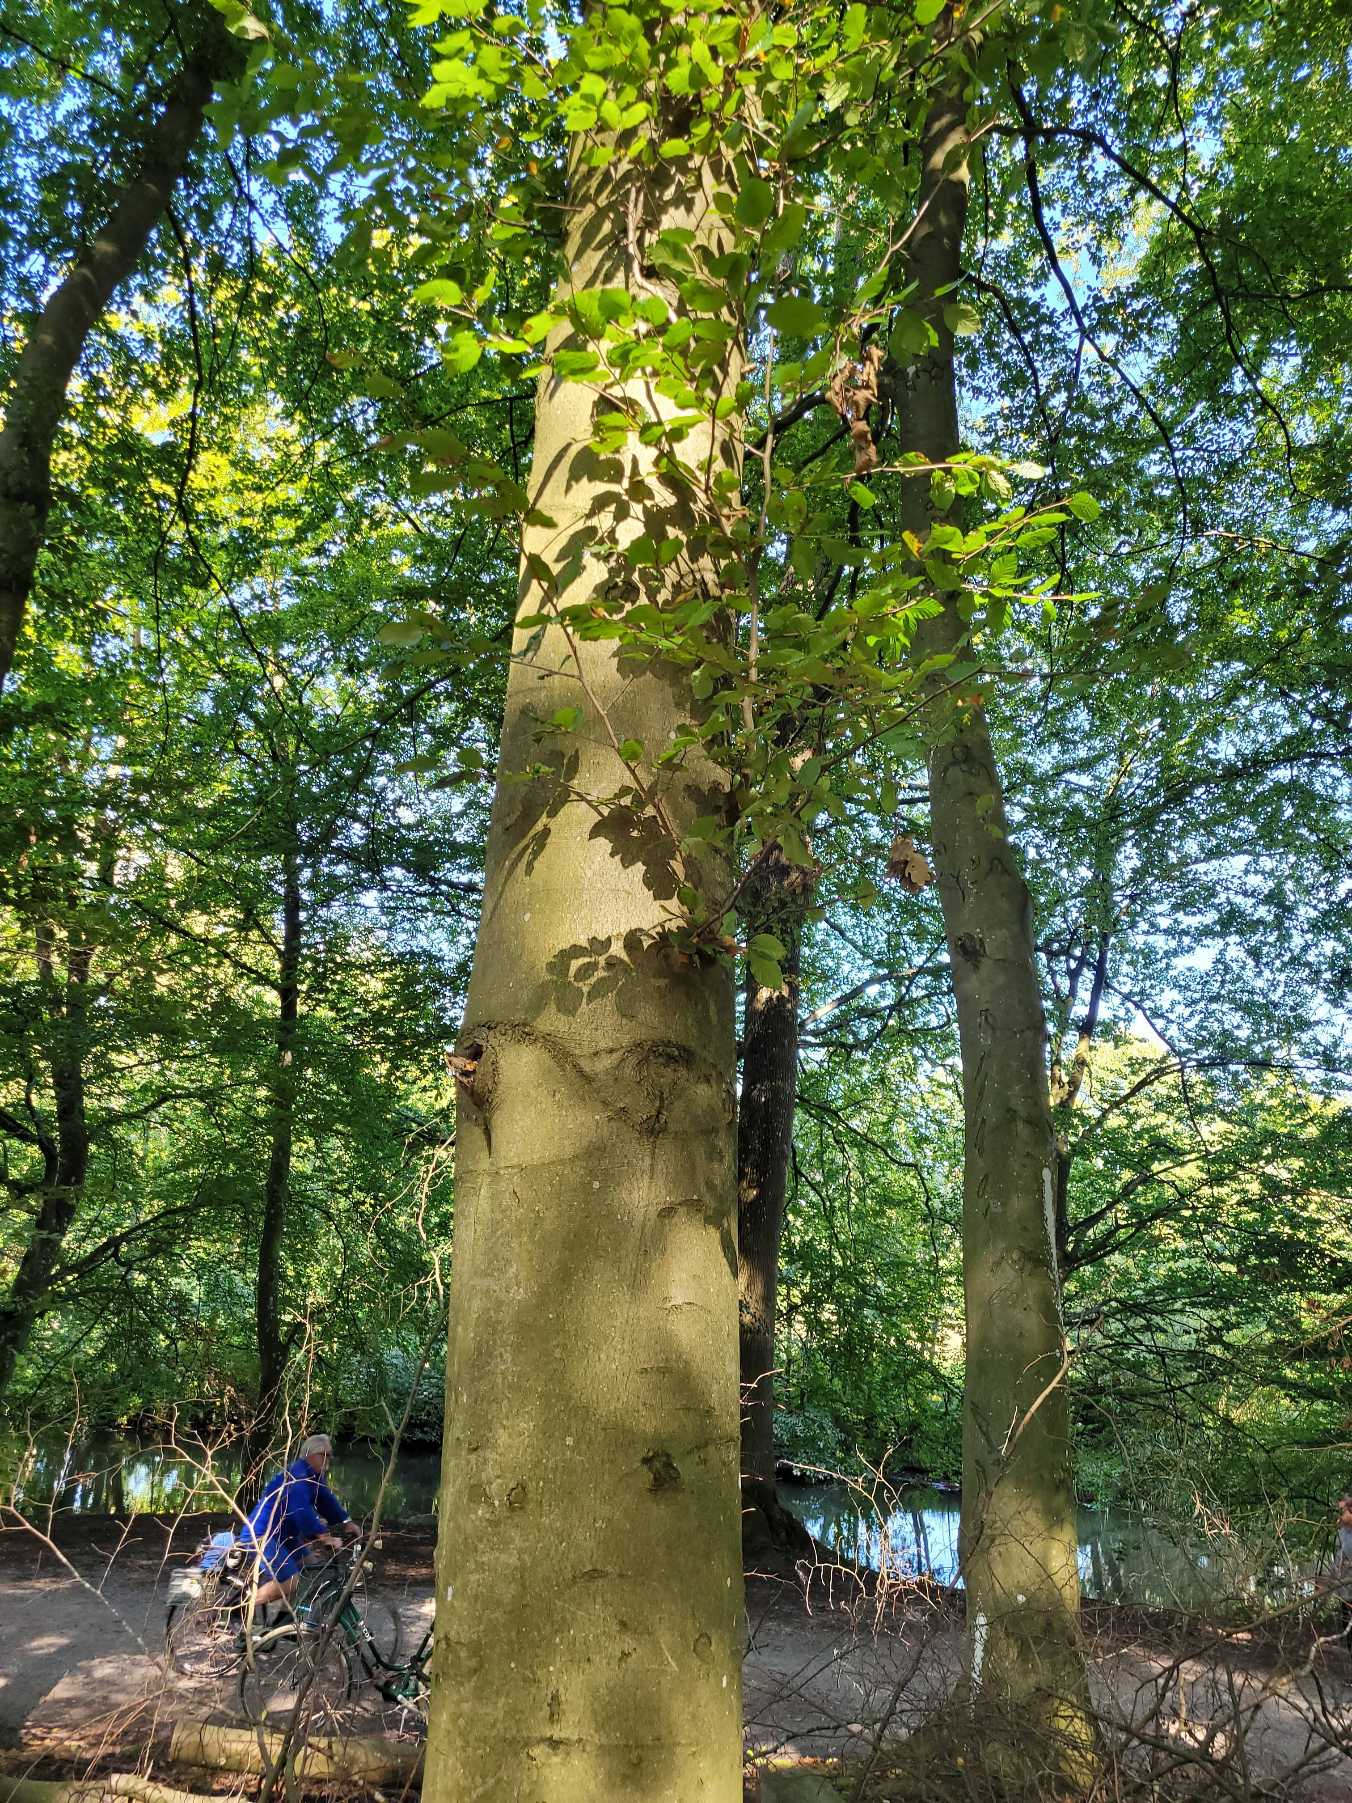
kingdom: Plantae
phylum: Tracheophyta
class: Magnoliopsida
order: Fagales
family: Fagaceae
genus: Fagus
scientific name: Fagus sylvatica
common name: Bøg
